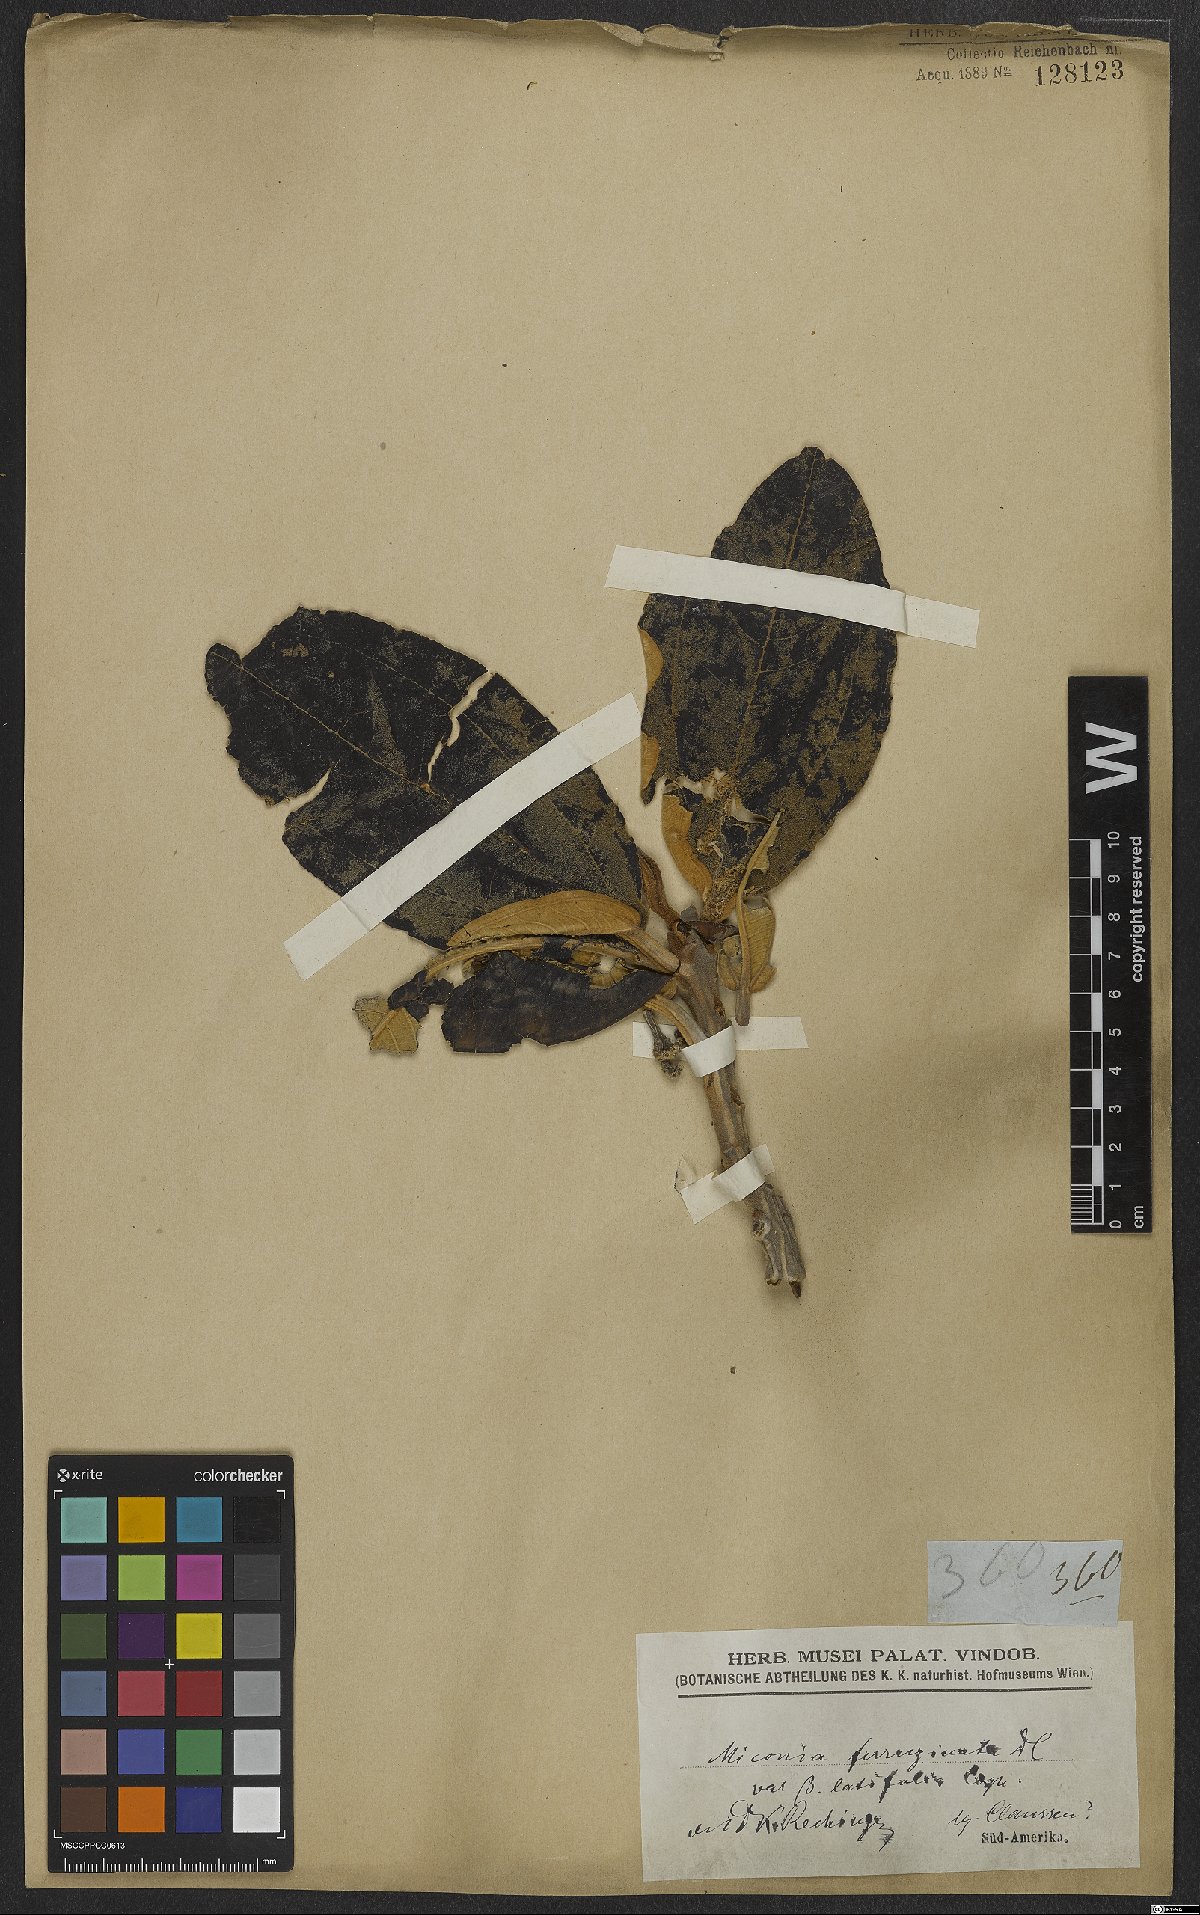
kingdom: Plantae
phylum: Tracheophyta
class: Magnoliopsida
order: Myrtales
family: Melastomataceae
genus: Miconia
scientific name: Miconia ferruginata
